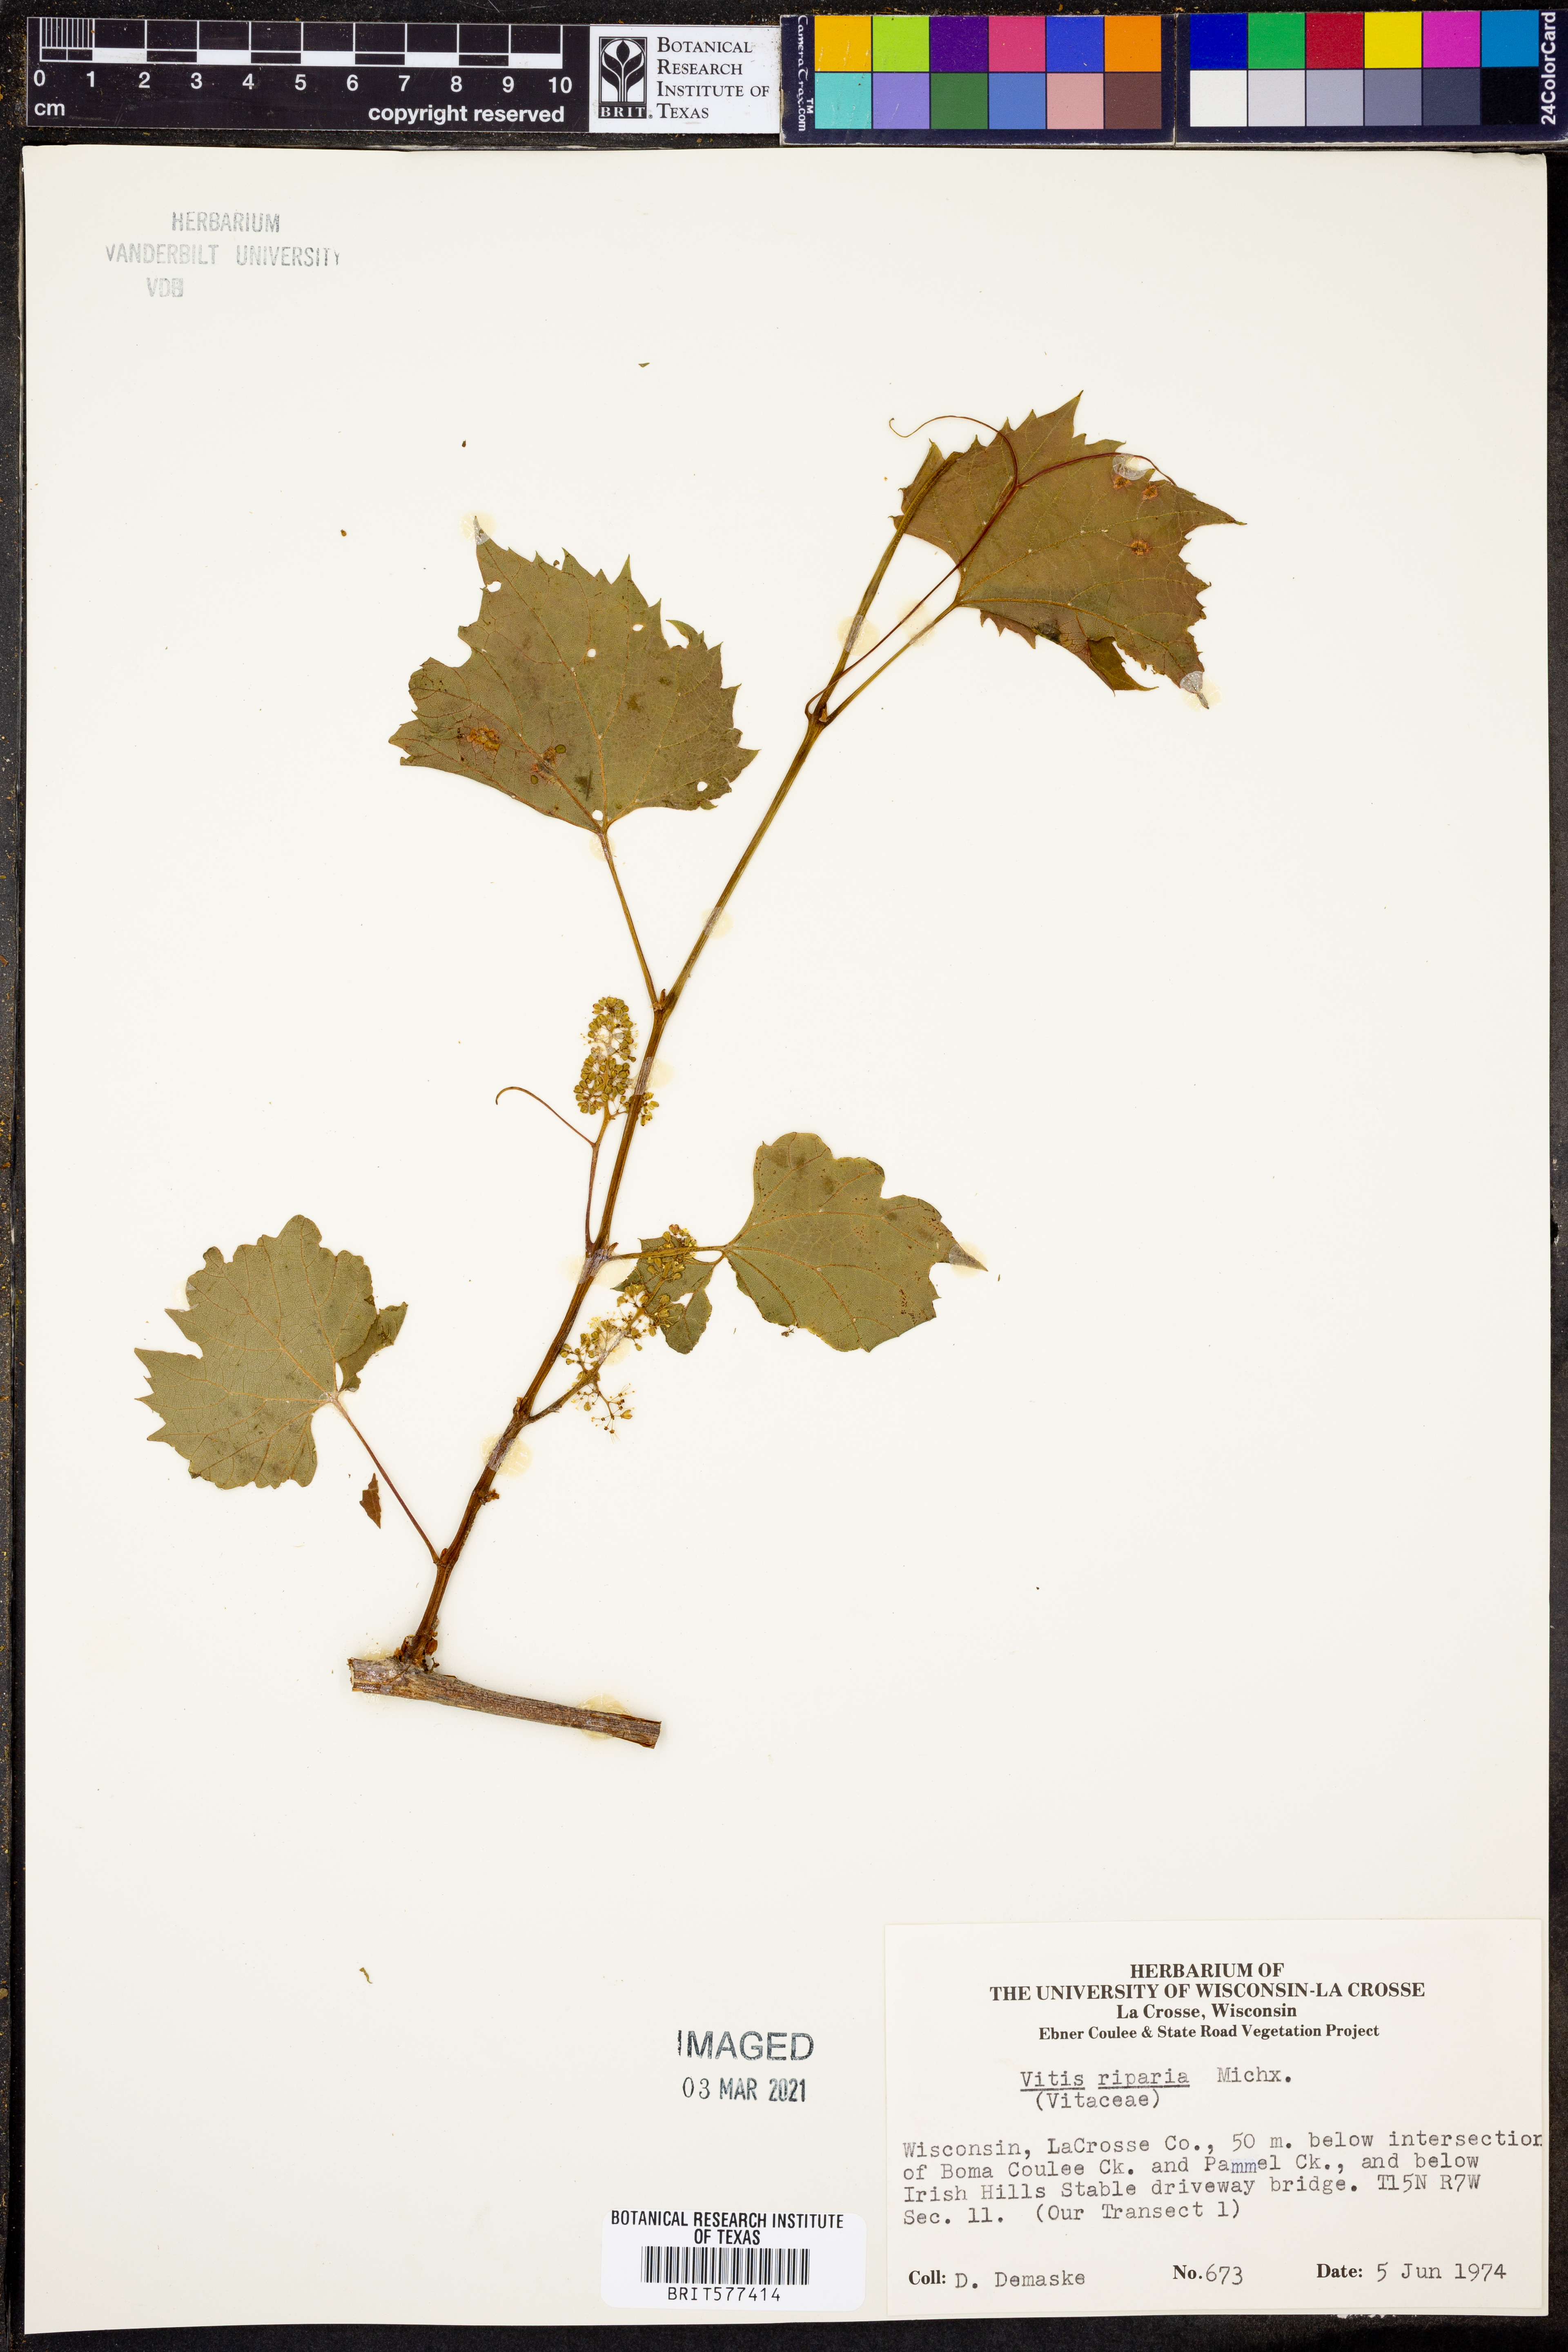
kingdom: Plantae
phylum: Tracheophyta
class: Magnoliopsida
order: Vitales
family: Vitaceae
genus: Vitis
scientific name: Vitis riparia
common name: Frost grape
